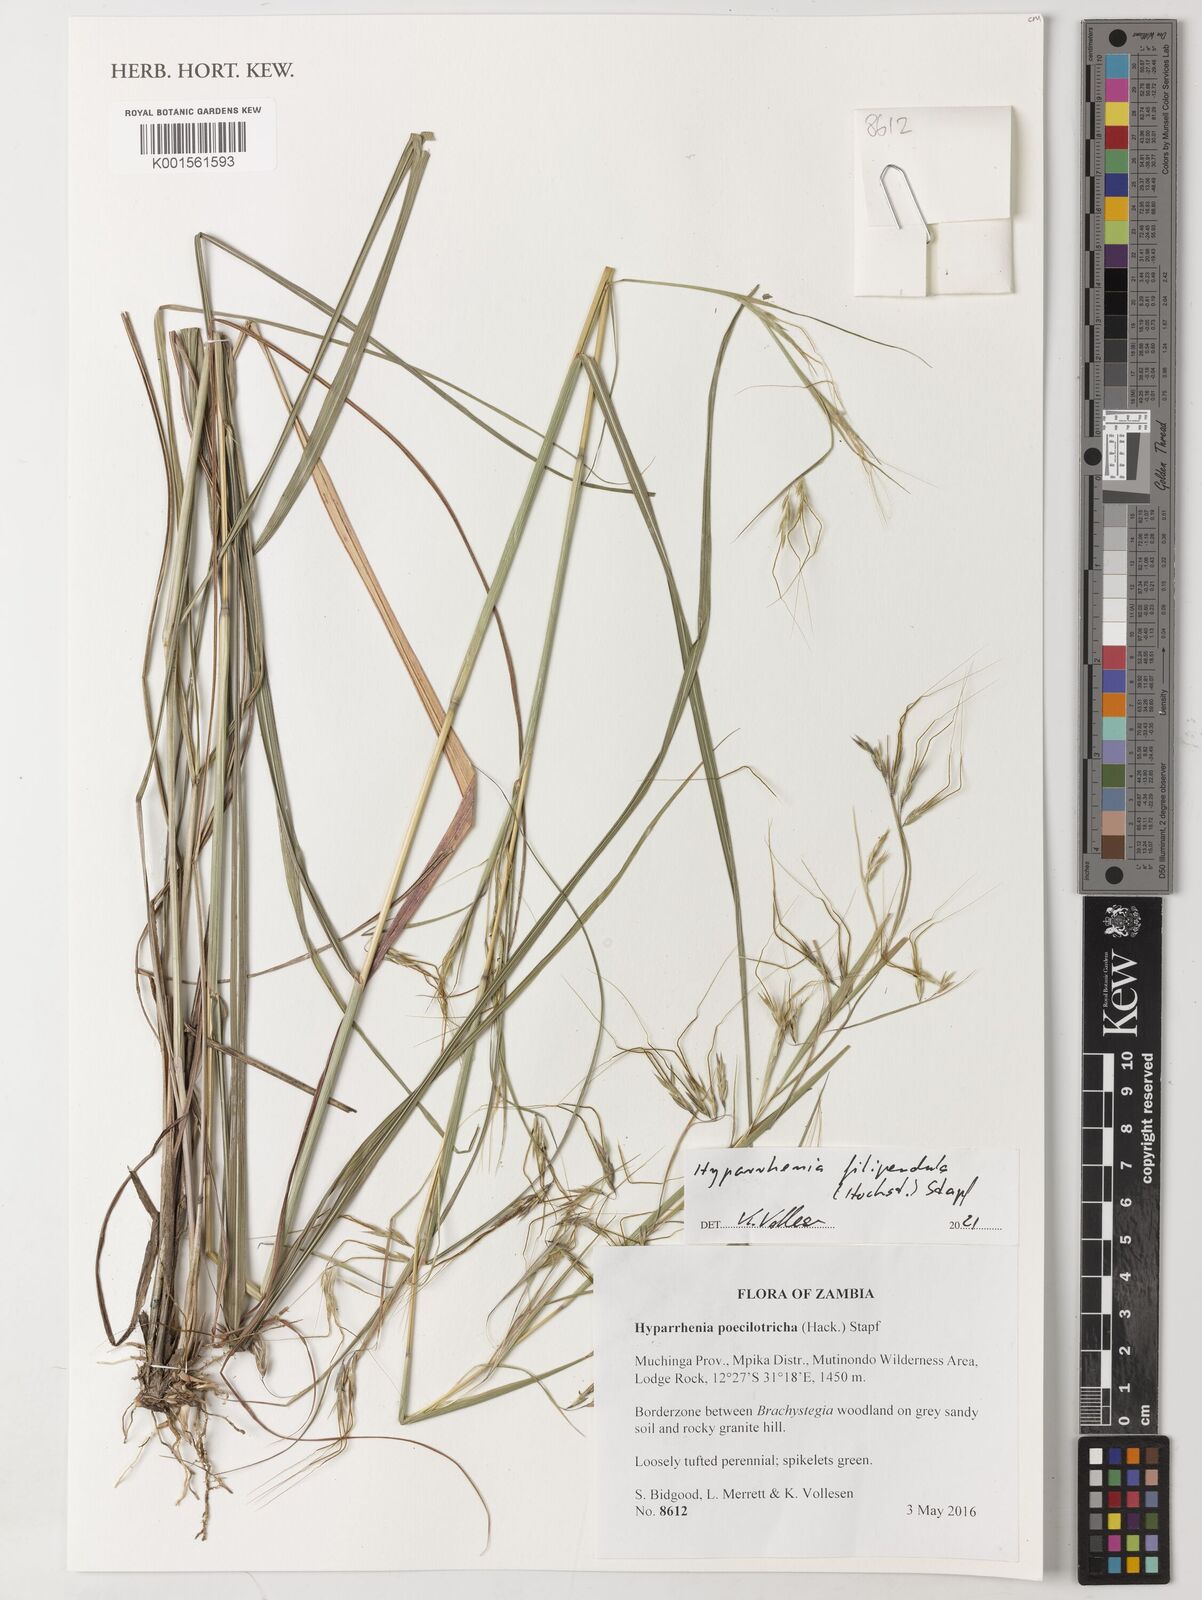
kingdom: Plantae
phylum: Tracheophyta
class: Liliopsida
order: Poales
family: Poaceae
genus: Hyparrhenia
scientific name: Hyparrhenia filipendula
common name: Tambookie grass
